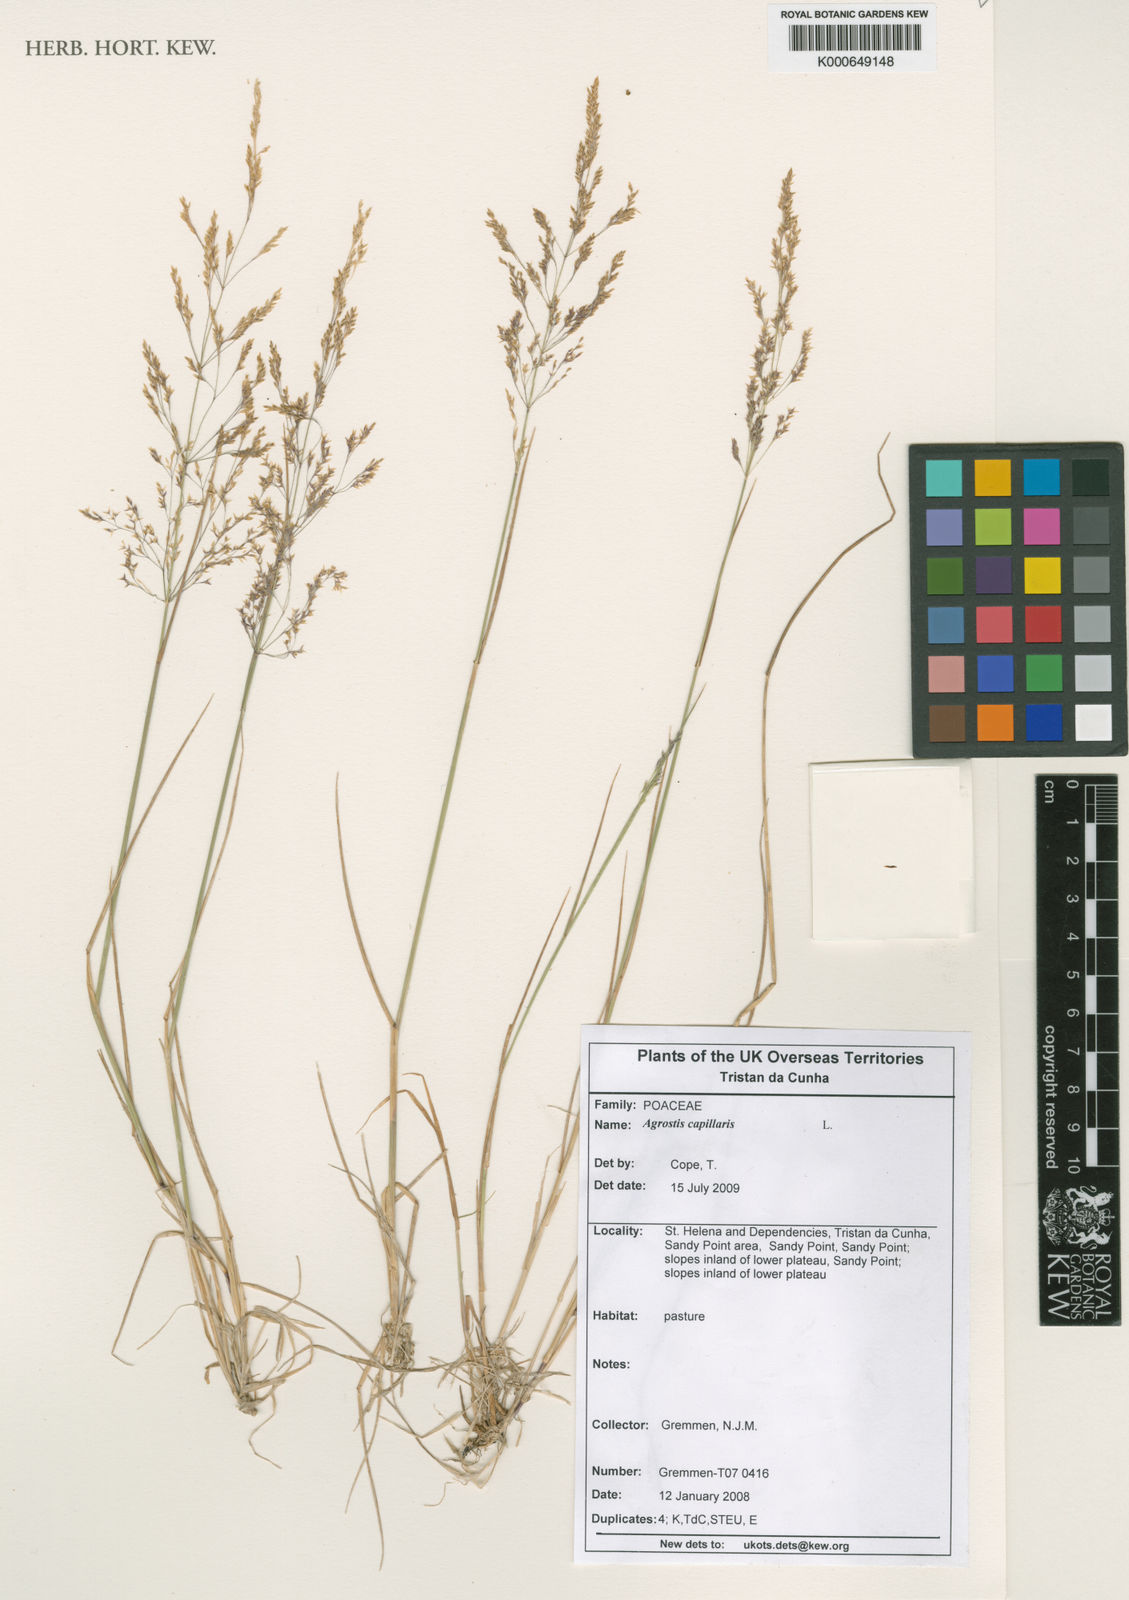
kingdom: Plantae
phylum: Tracheophyta
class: Liliopsida
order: Poales
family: Poaceae
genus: Agrostis
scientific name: Agrostis capillaris
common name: Colonial bentgrass
